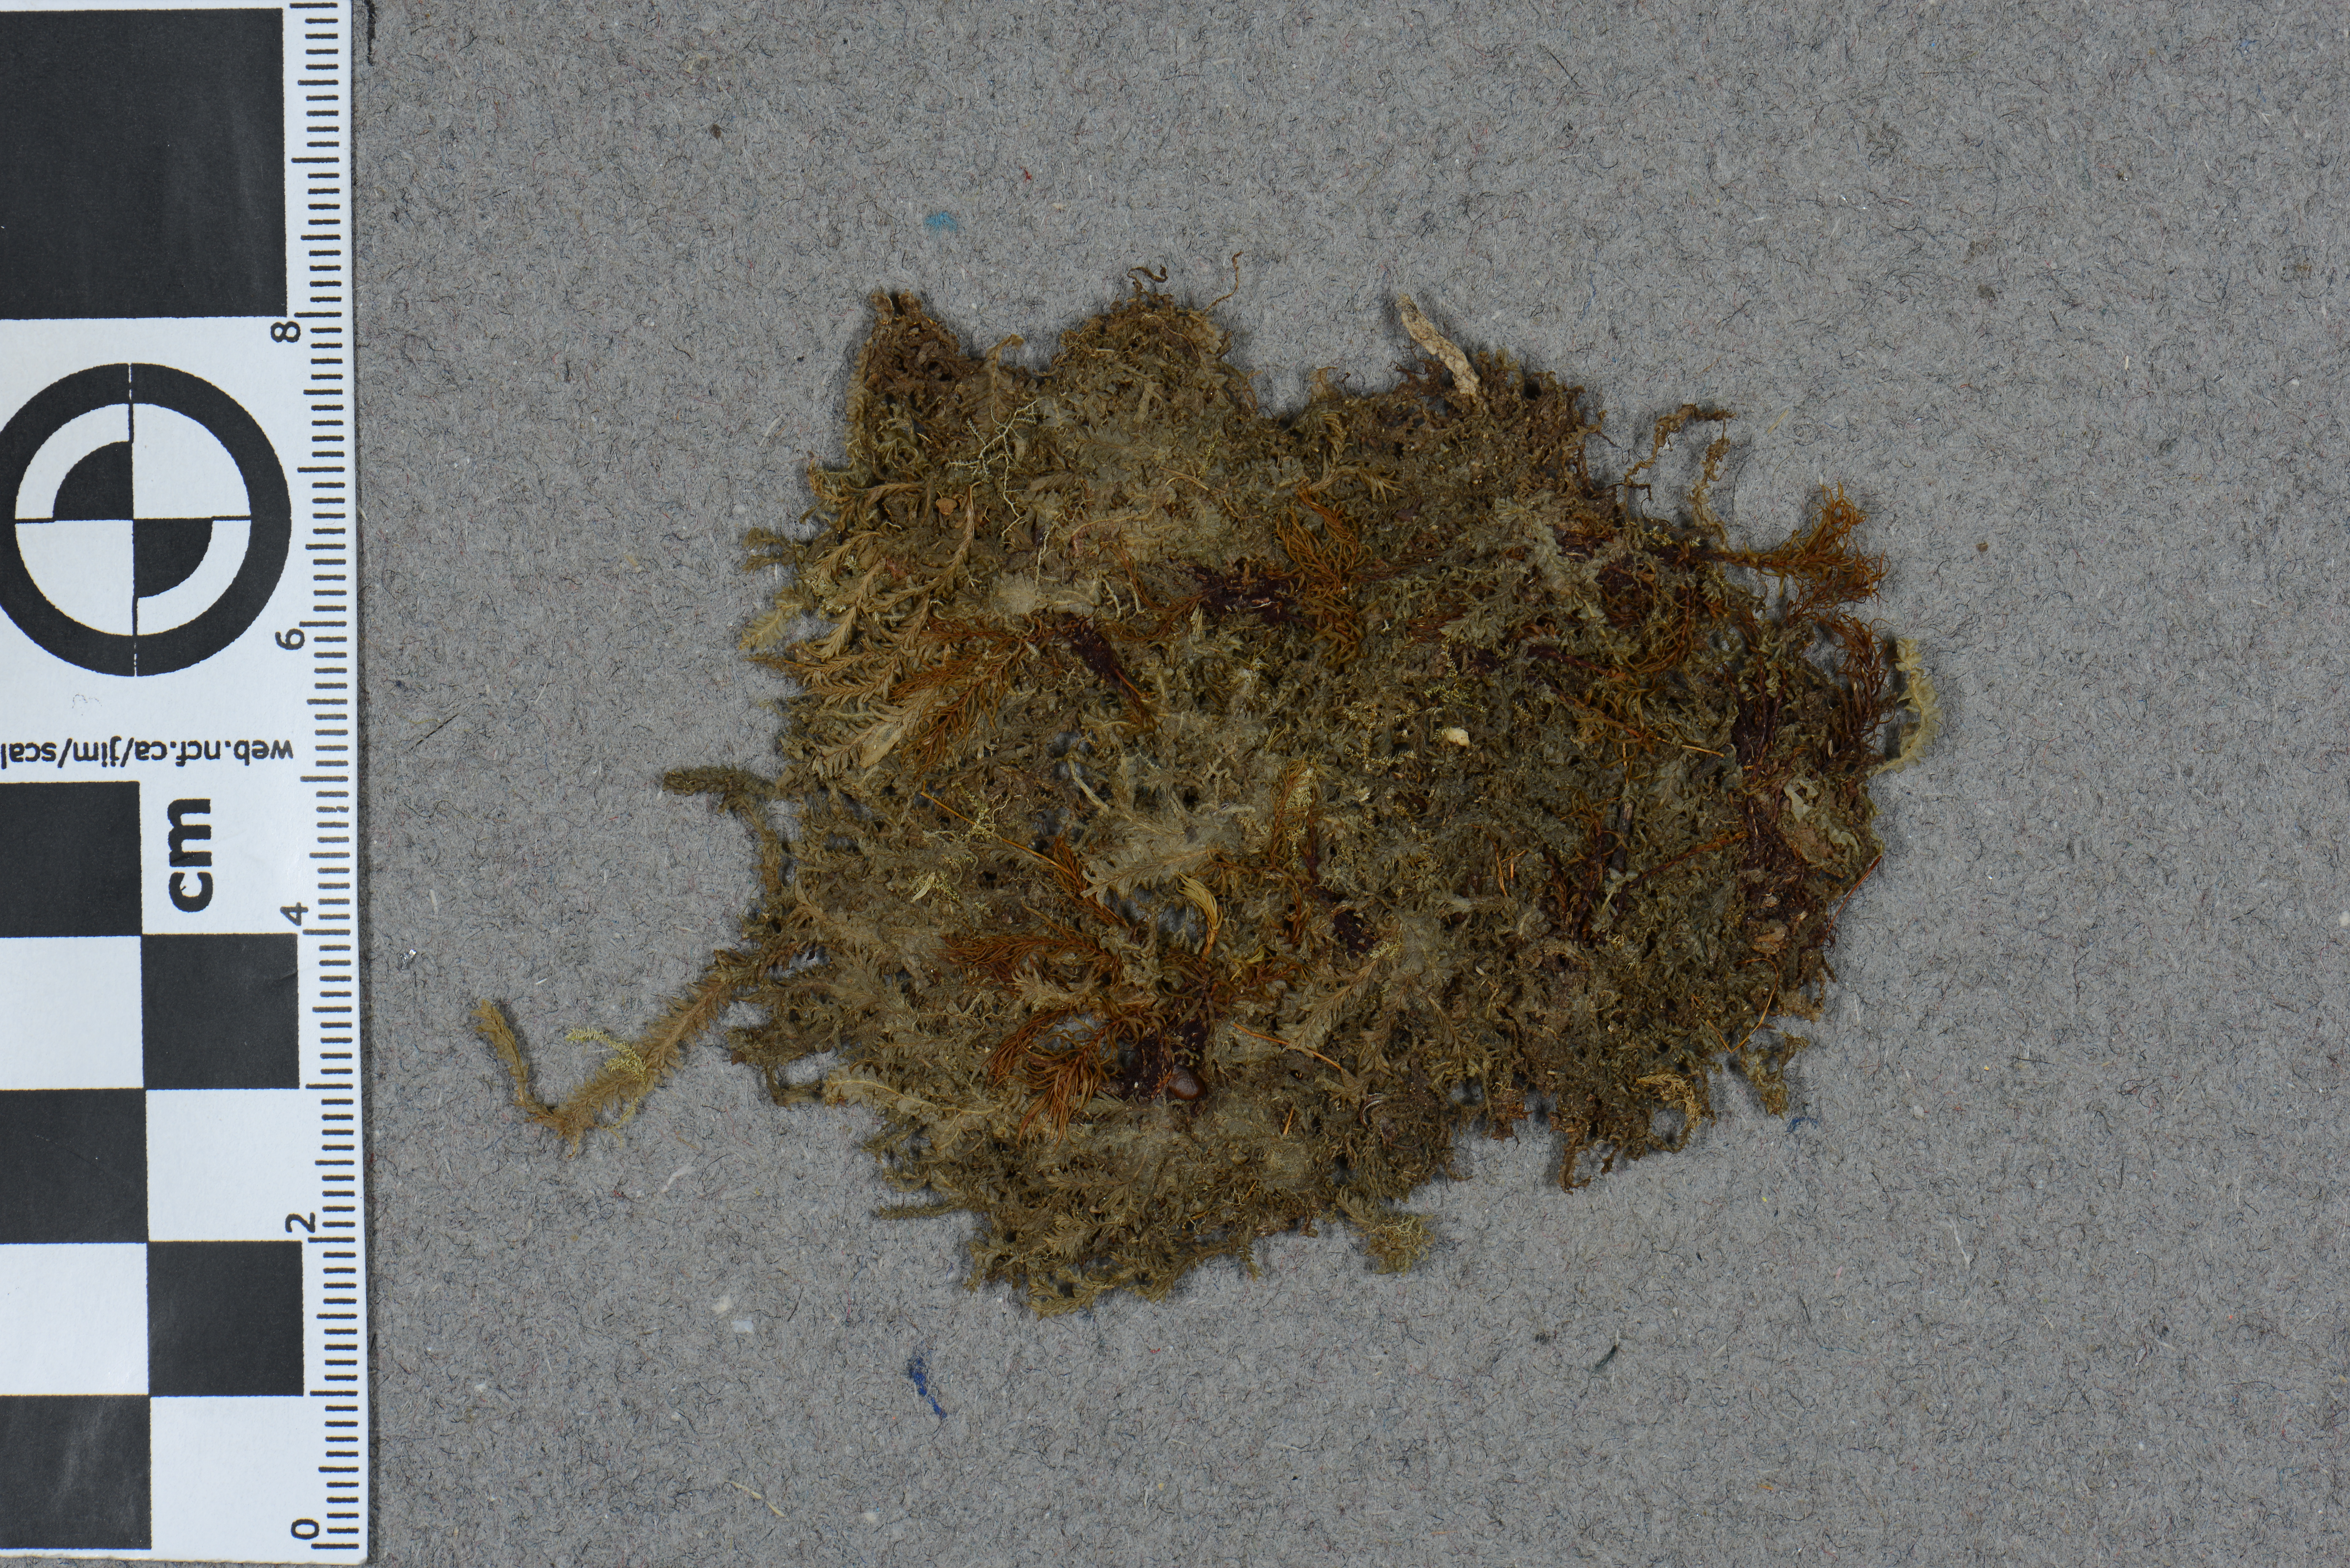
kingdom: Plantae
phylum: Marchantiophyta
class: Jungermanniopsida
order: Jungermanniales
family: Lophocoleaceae
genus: Cryptolophocolea
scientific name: Cryptolophocolea stephanii
